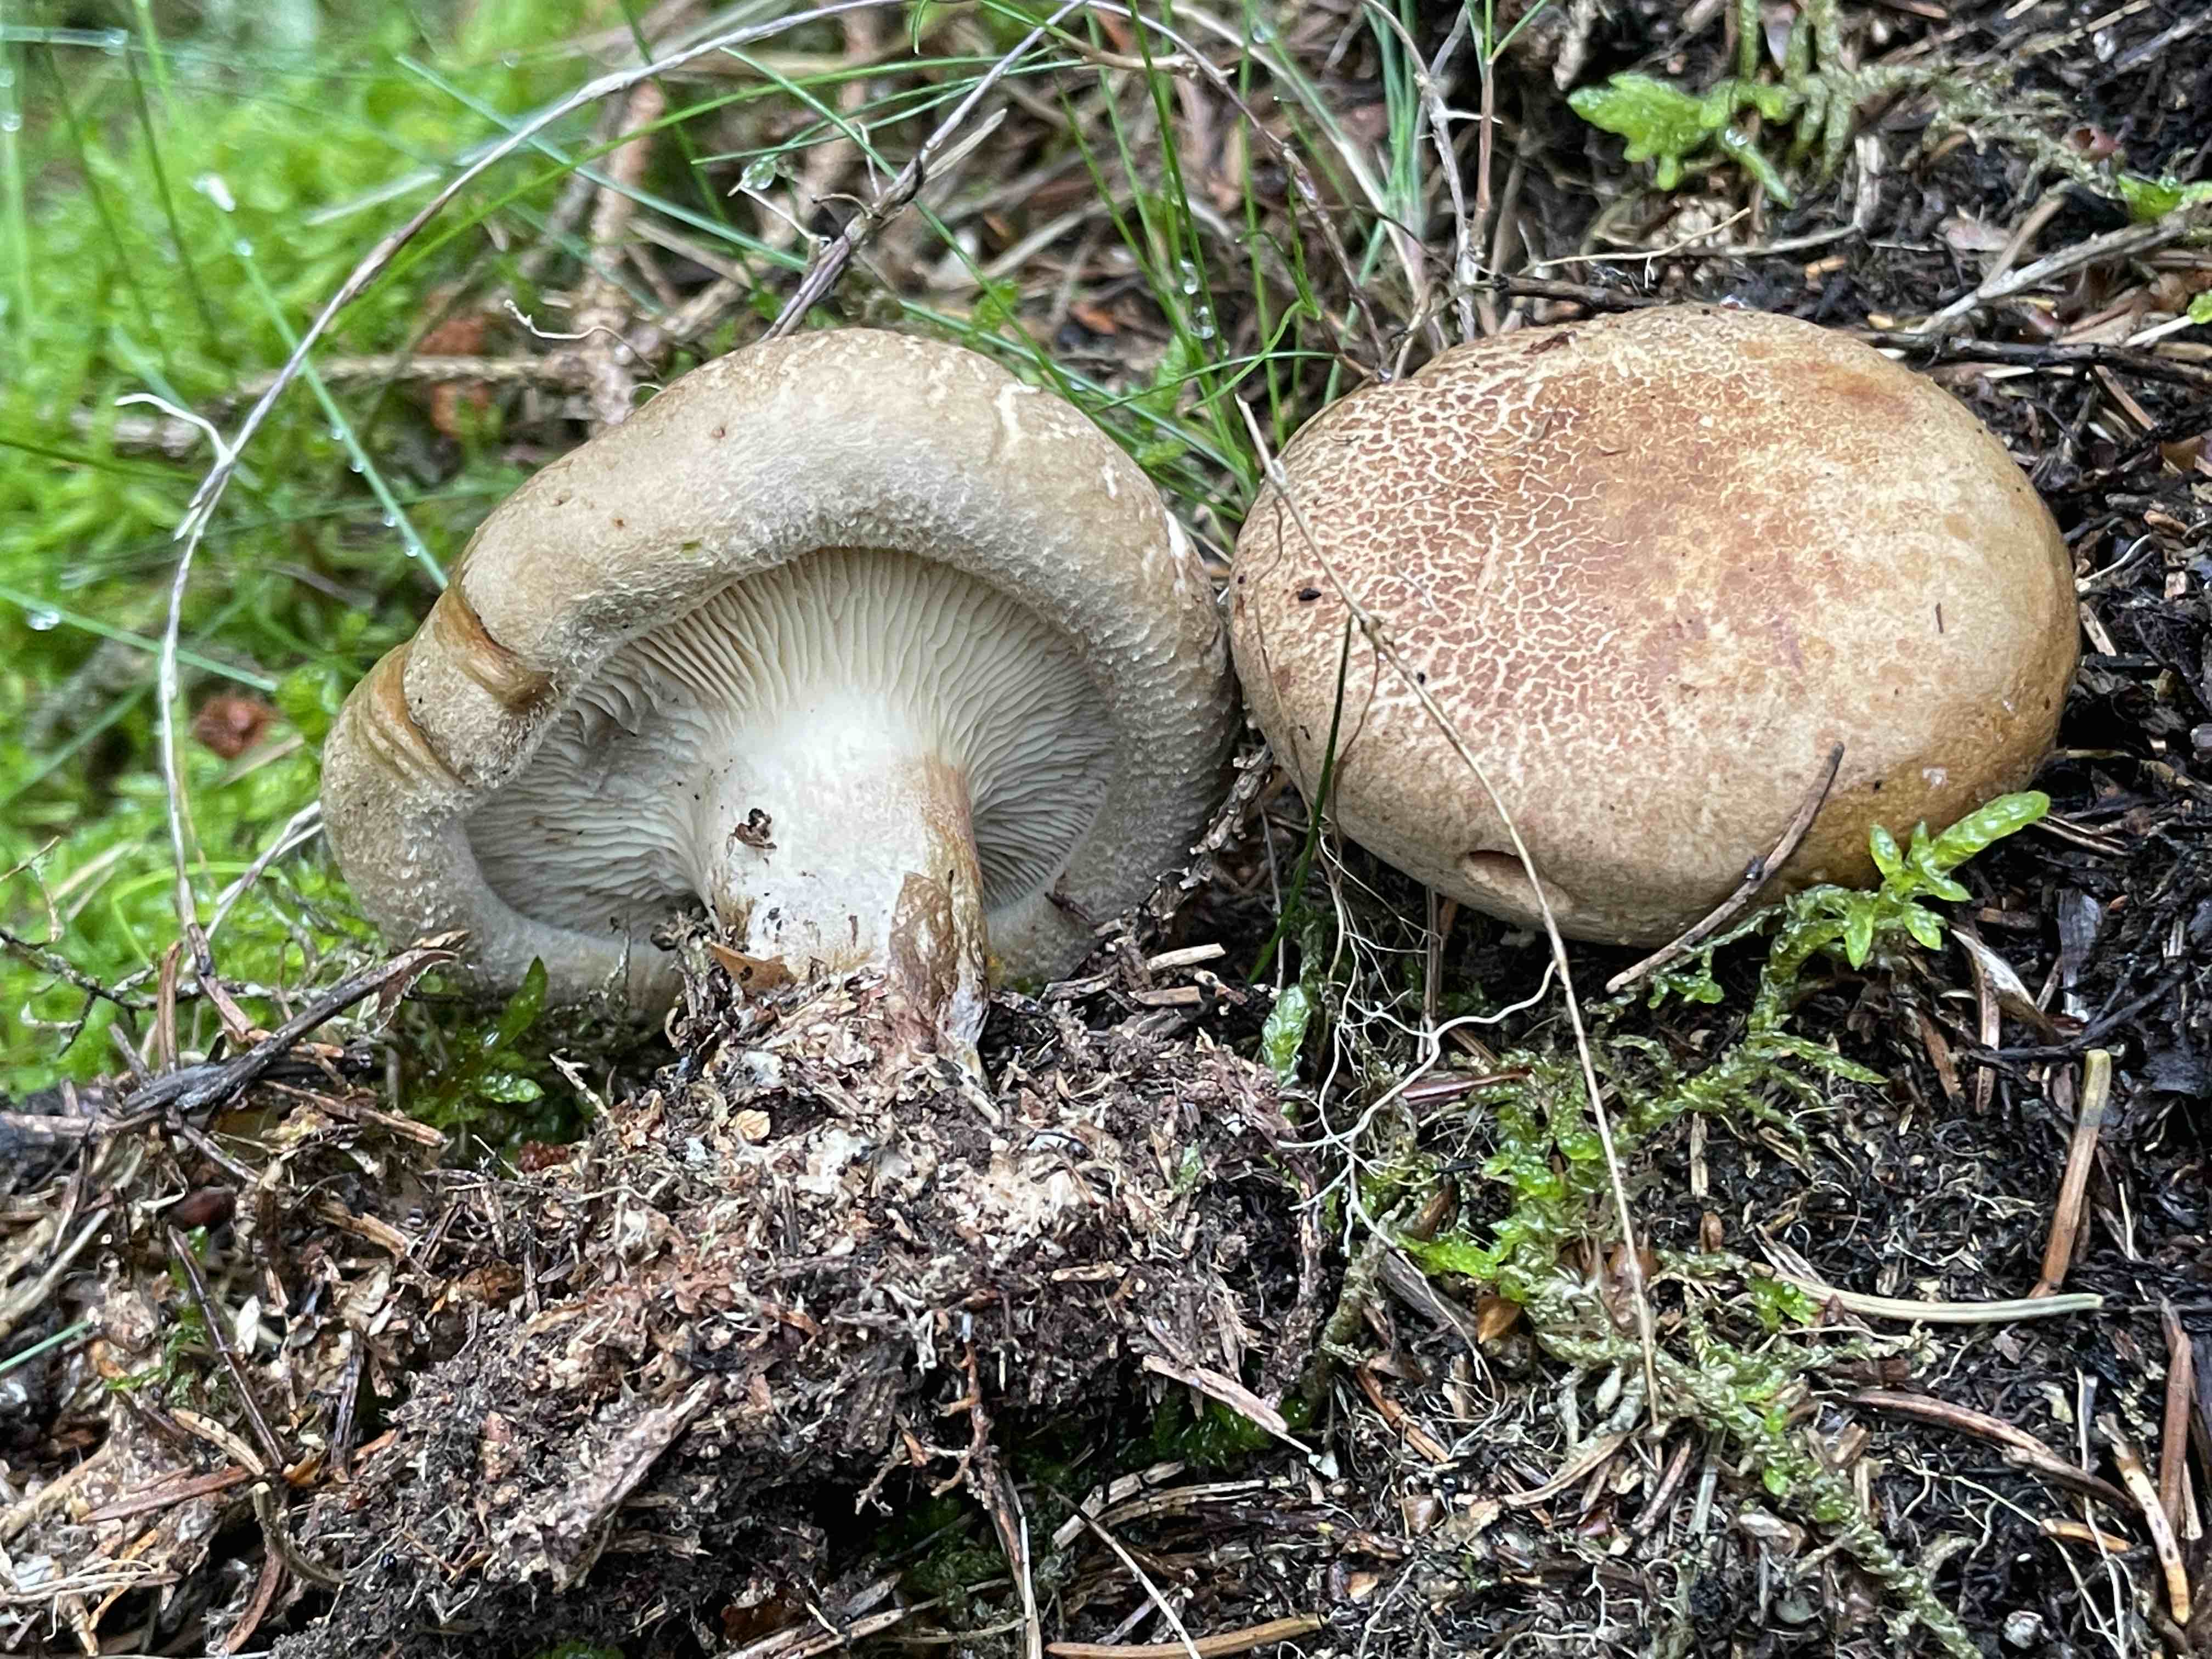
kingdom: Fungi
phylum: Basidiomycota
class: Agaricomycetes
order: Boletales
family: Paxillaceae
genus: Paxillus
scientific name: Paxillus involutus
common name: almindelig netbladhat
